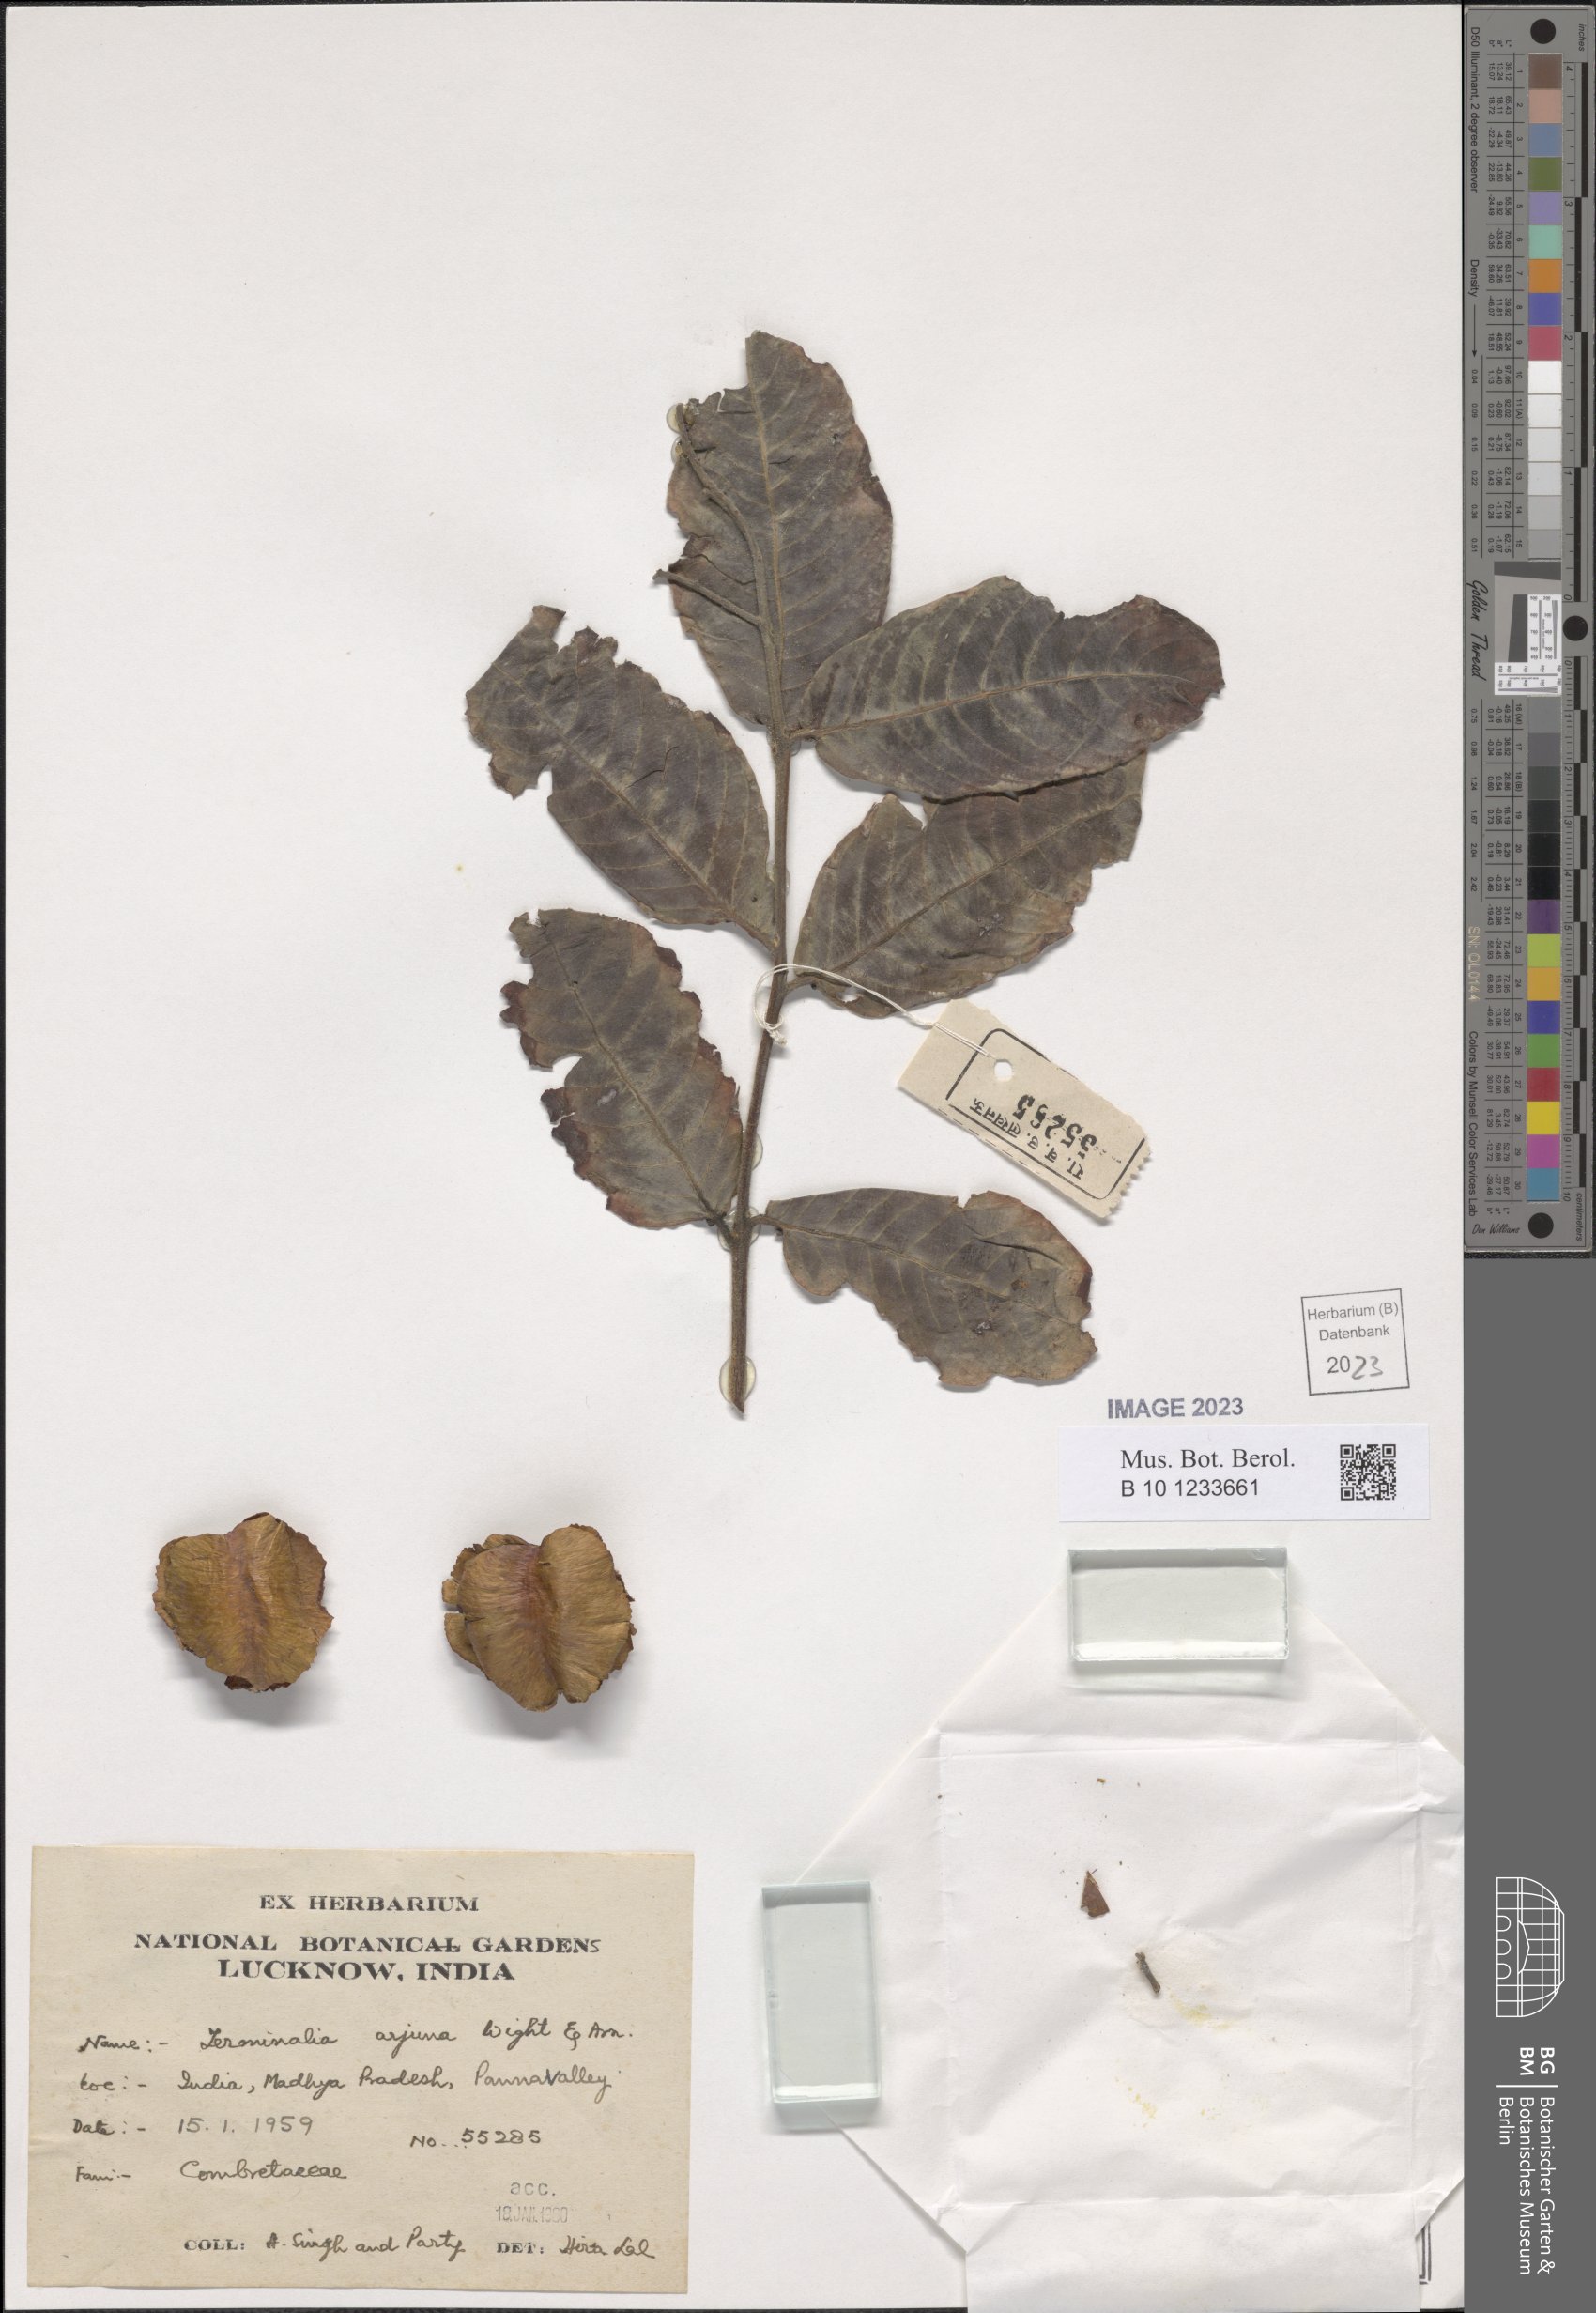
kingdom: Plantae
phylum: Tracheophyta
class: Magnoliopsida
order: Myrtales
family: Combretaceae
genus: Terminalia
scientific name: Terminalia arjuna
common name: Arjun
